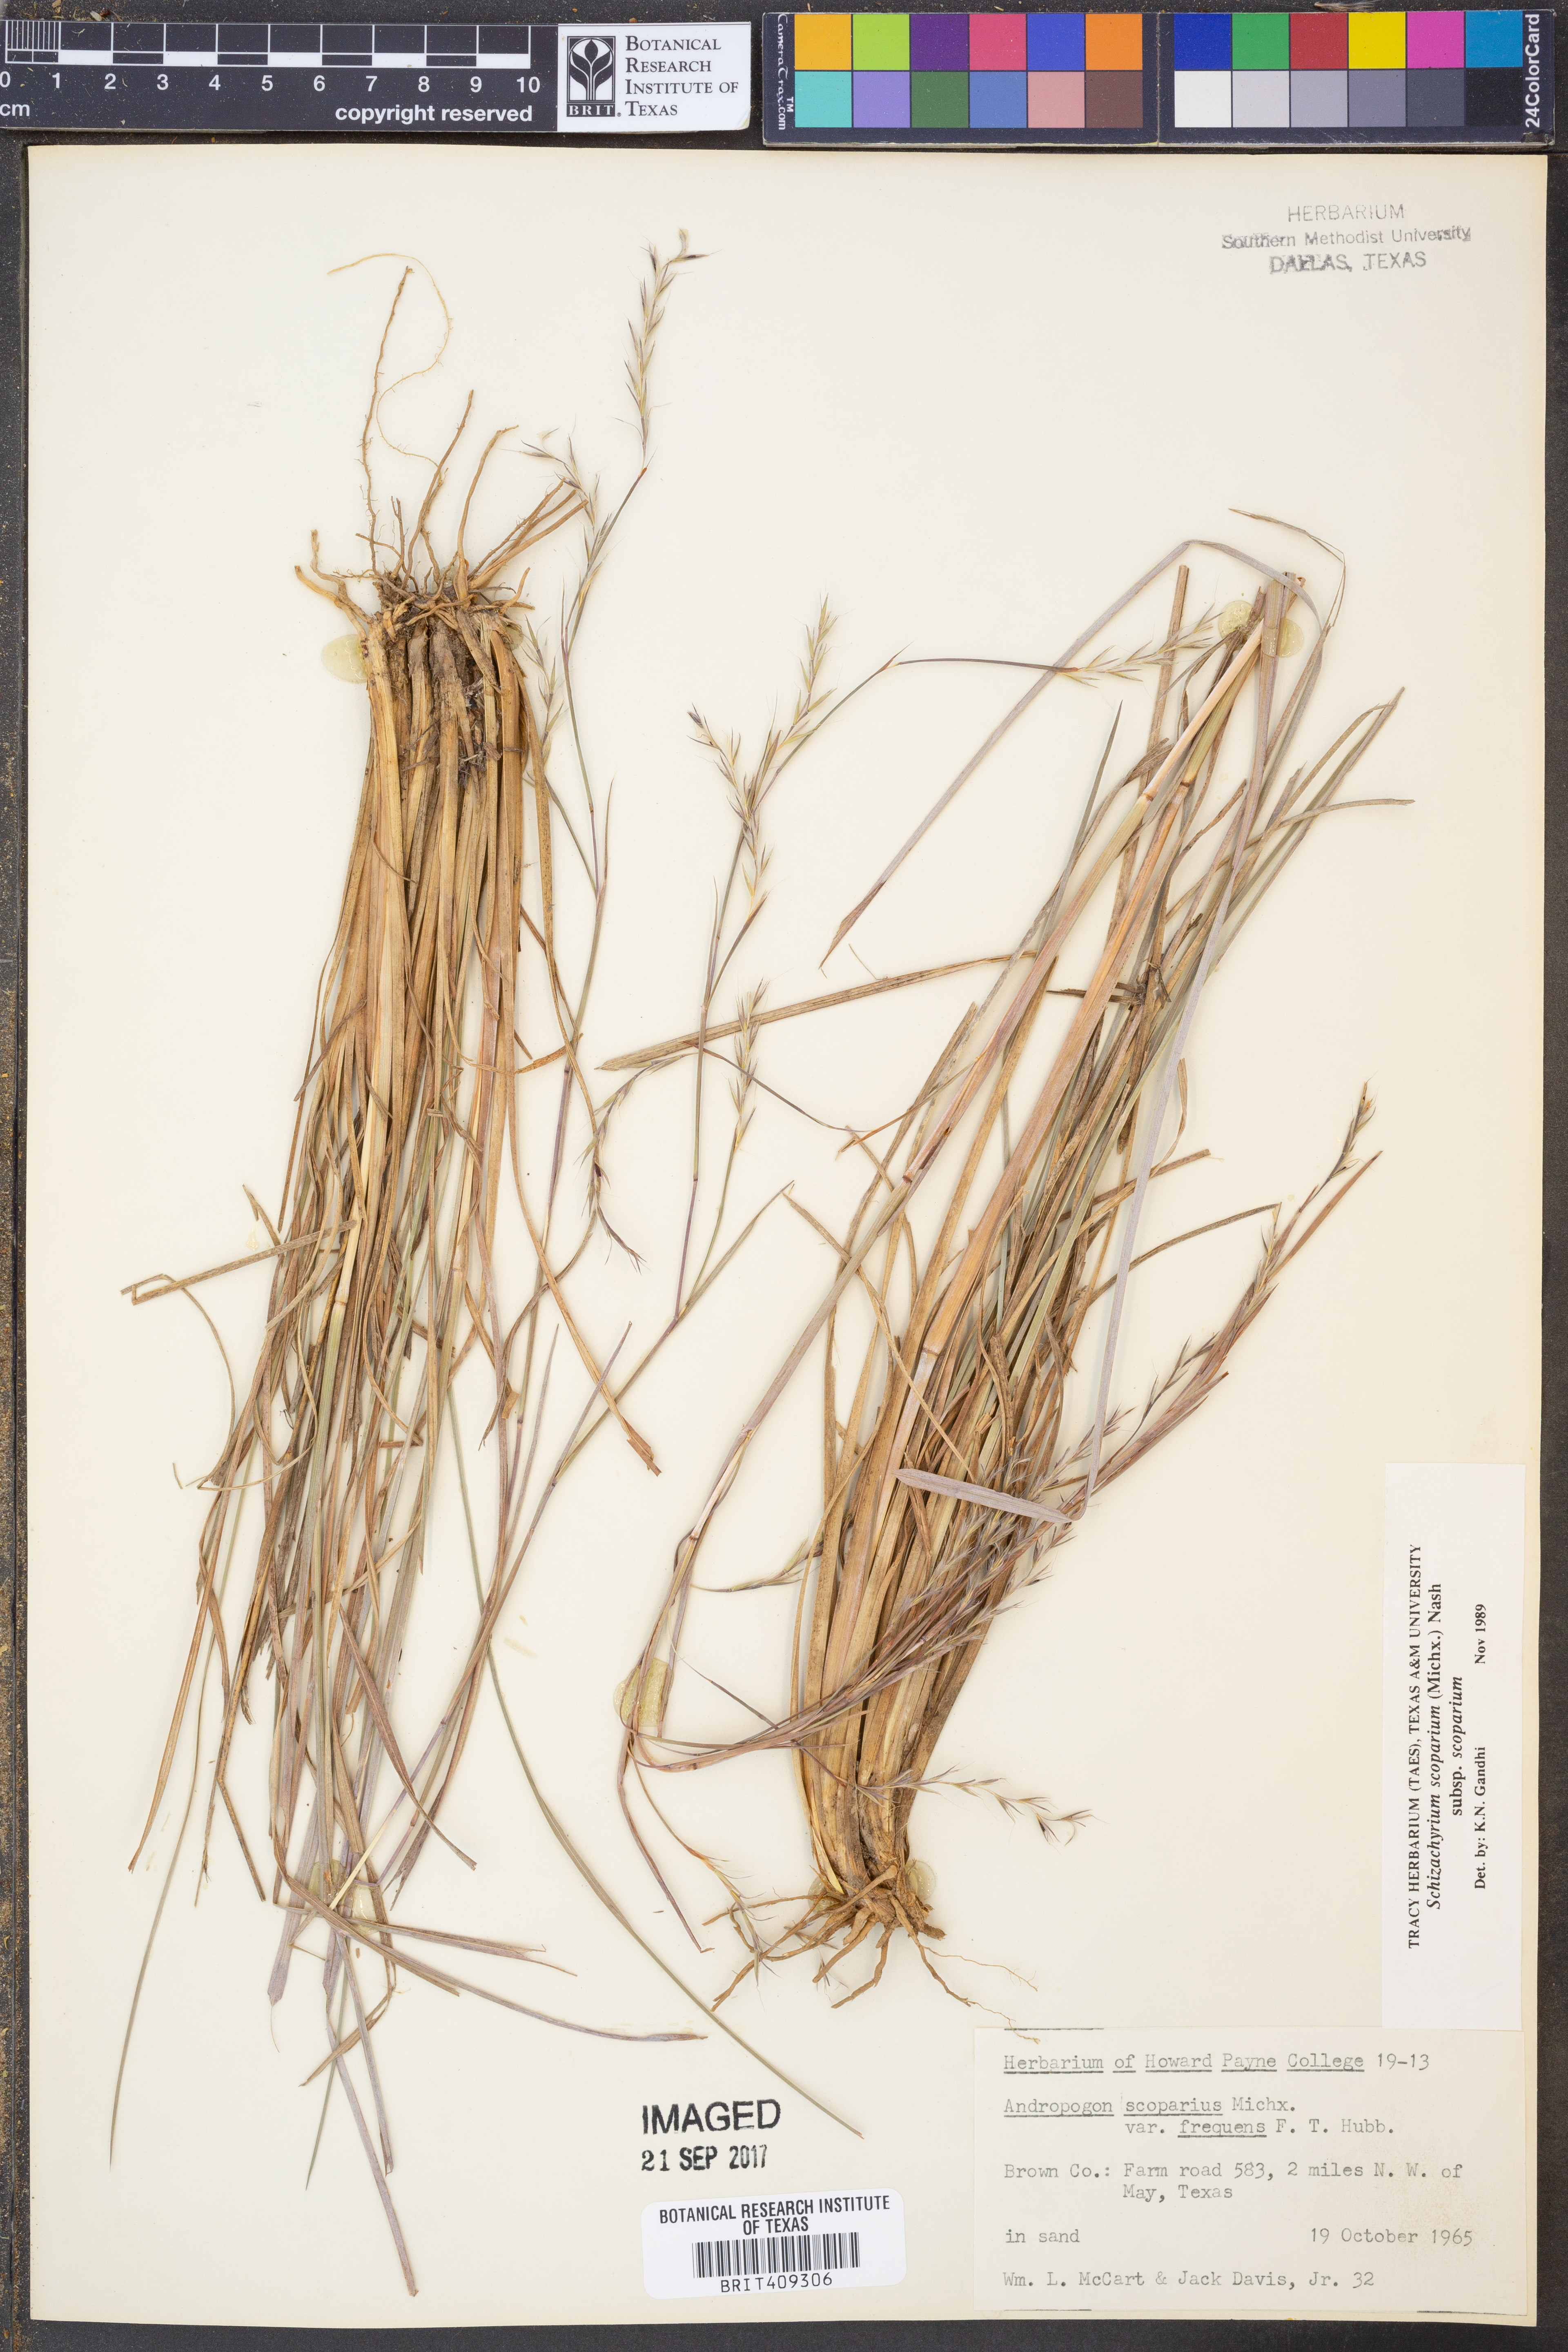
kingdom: Plantae
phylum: Tracheophyta
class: Liliopsida
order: Poales
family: Poaceae
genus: Schizachyrium
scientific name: Schizachyrium scoparium
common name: Little bluestem
